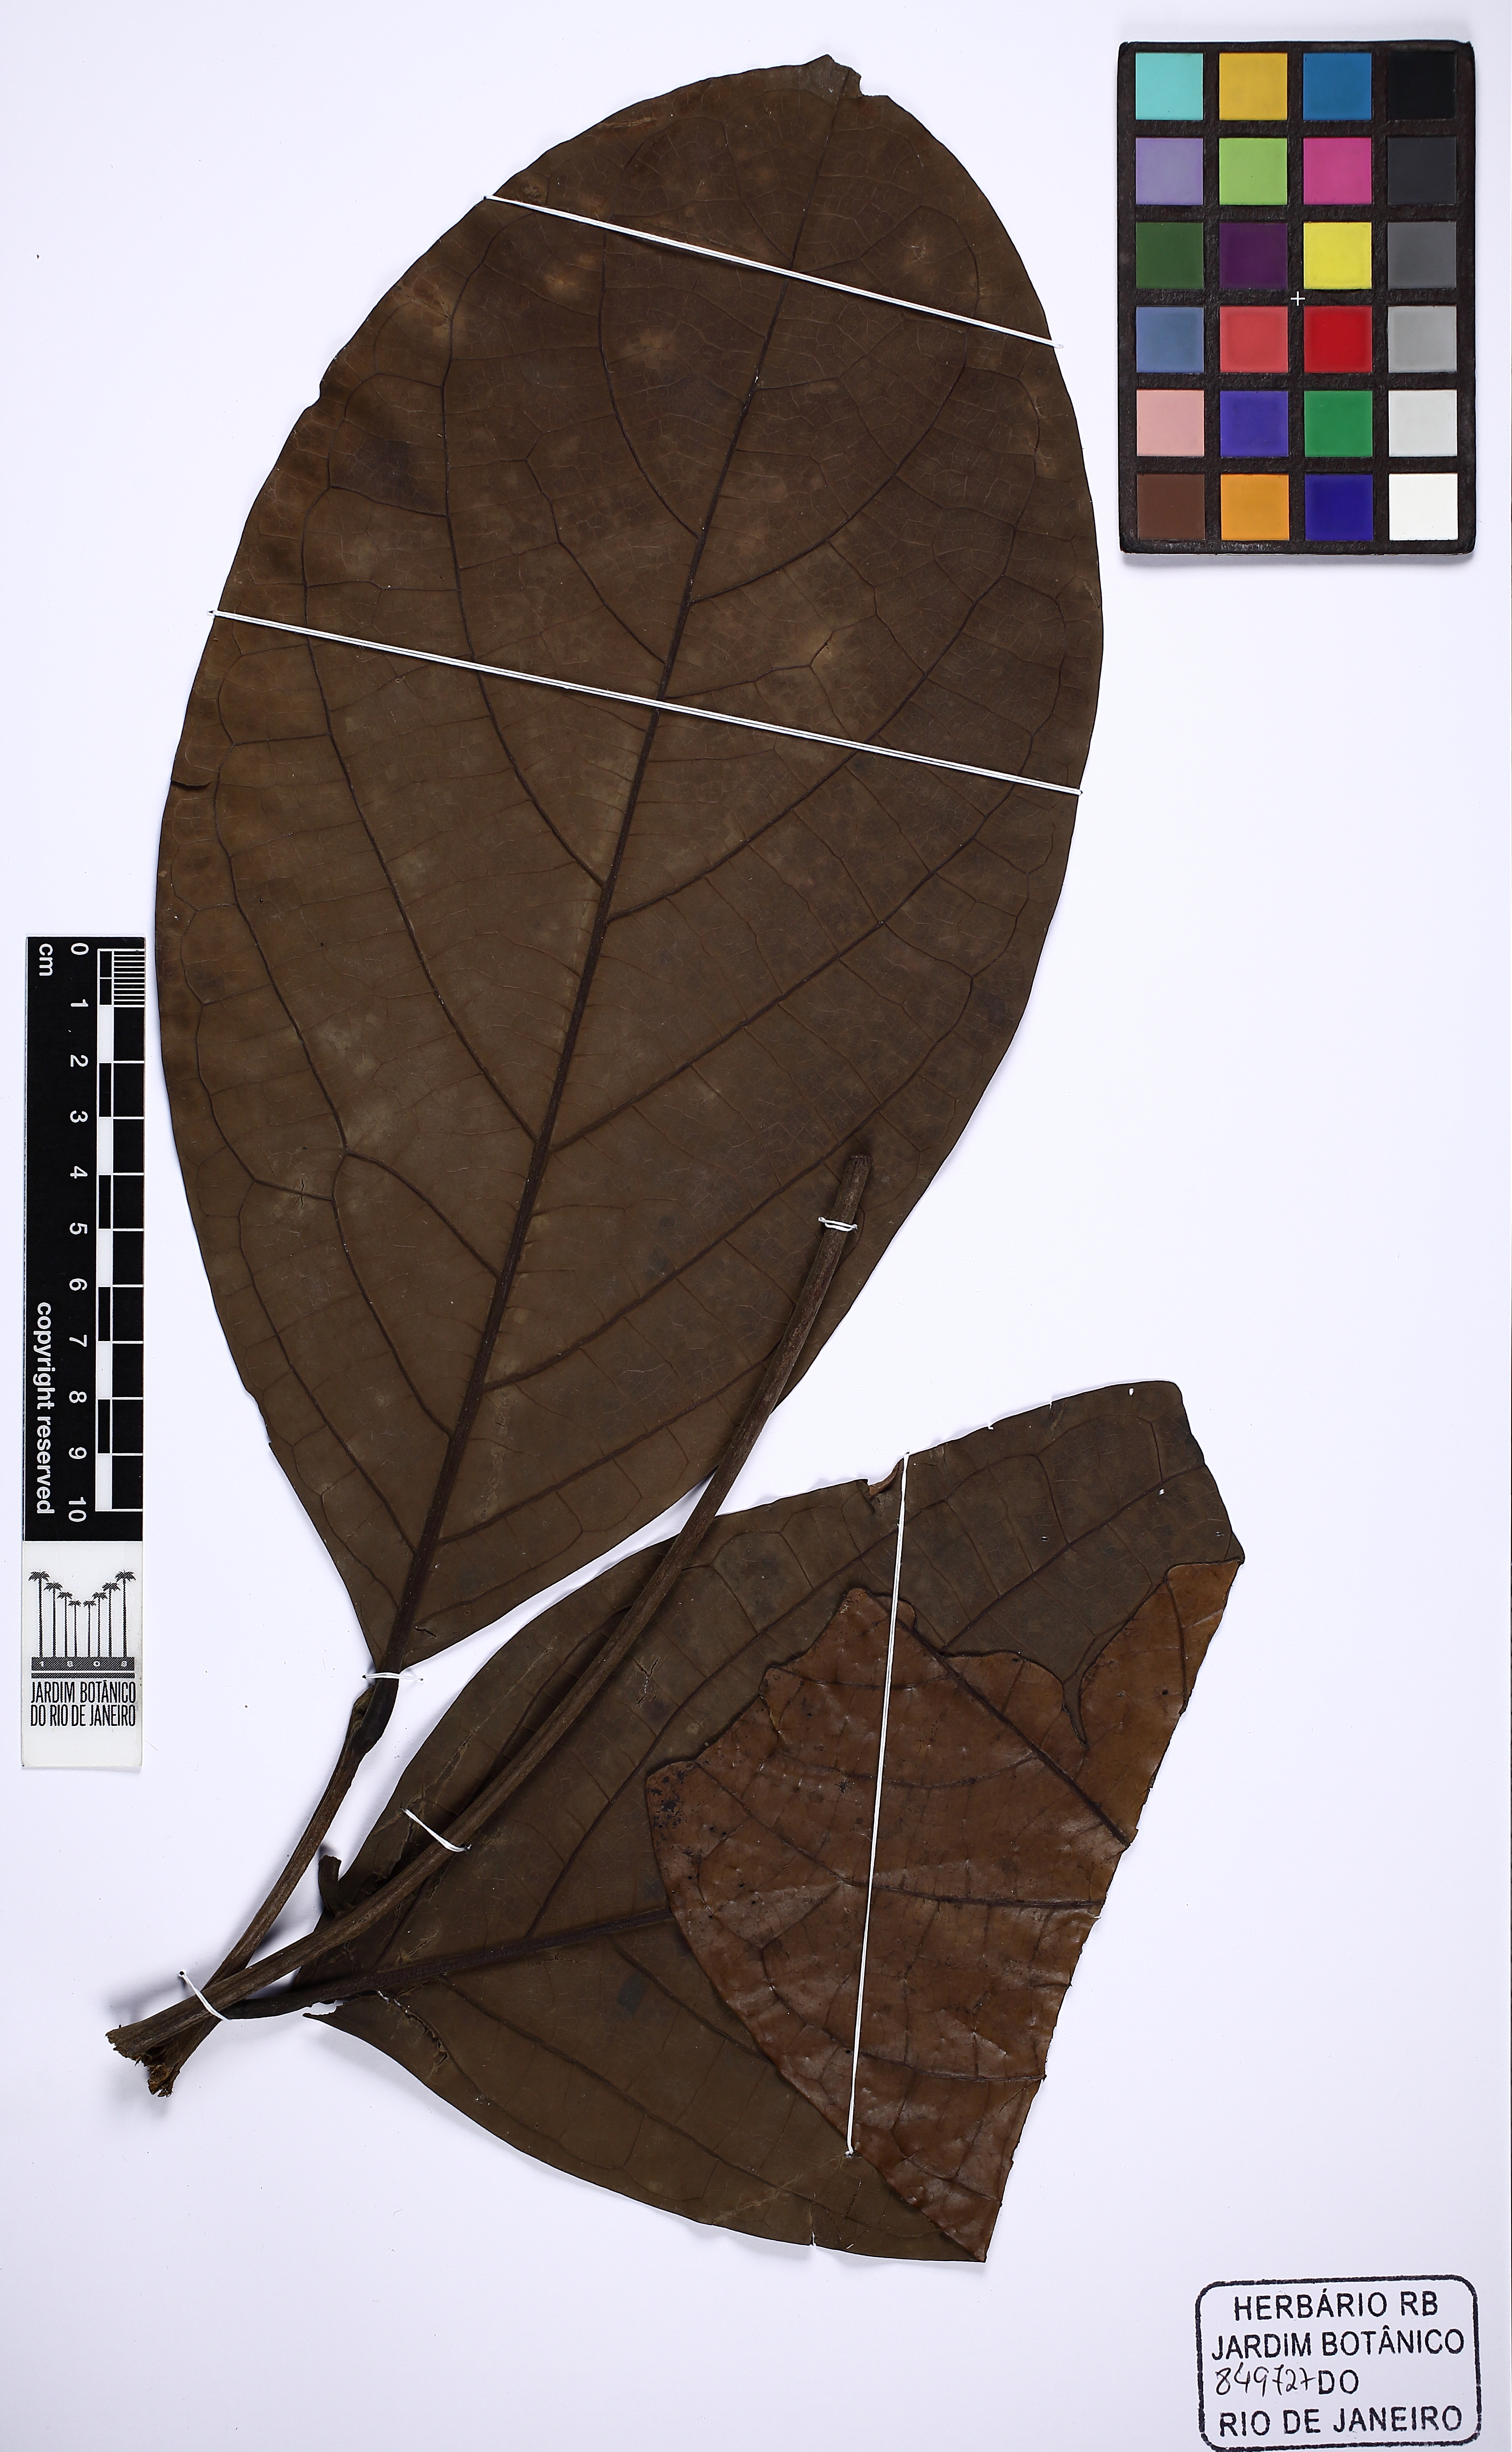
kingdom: Plantae
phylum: Tracheophyta
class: Magnoliopsida
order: Laurales
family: Lauraceae
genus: Ocotea
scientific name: Ocotea scabrella
